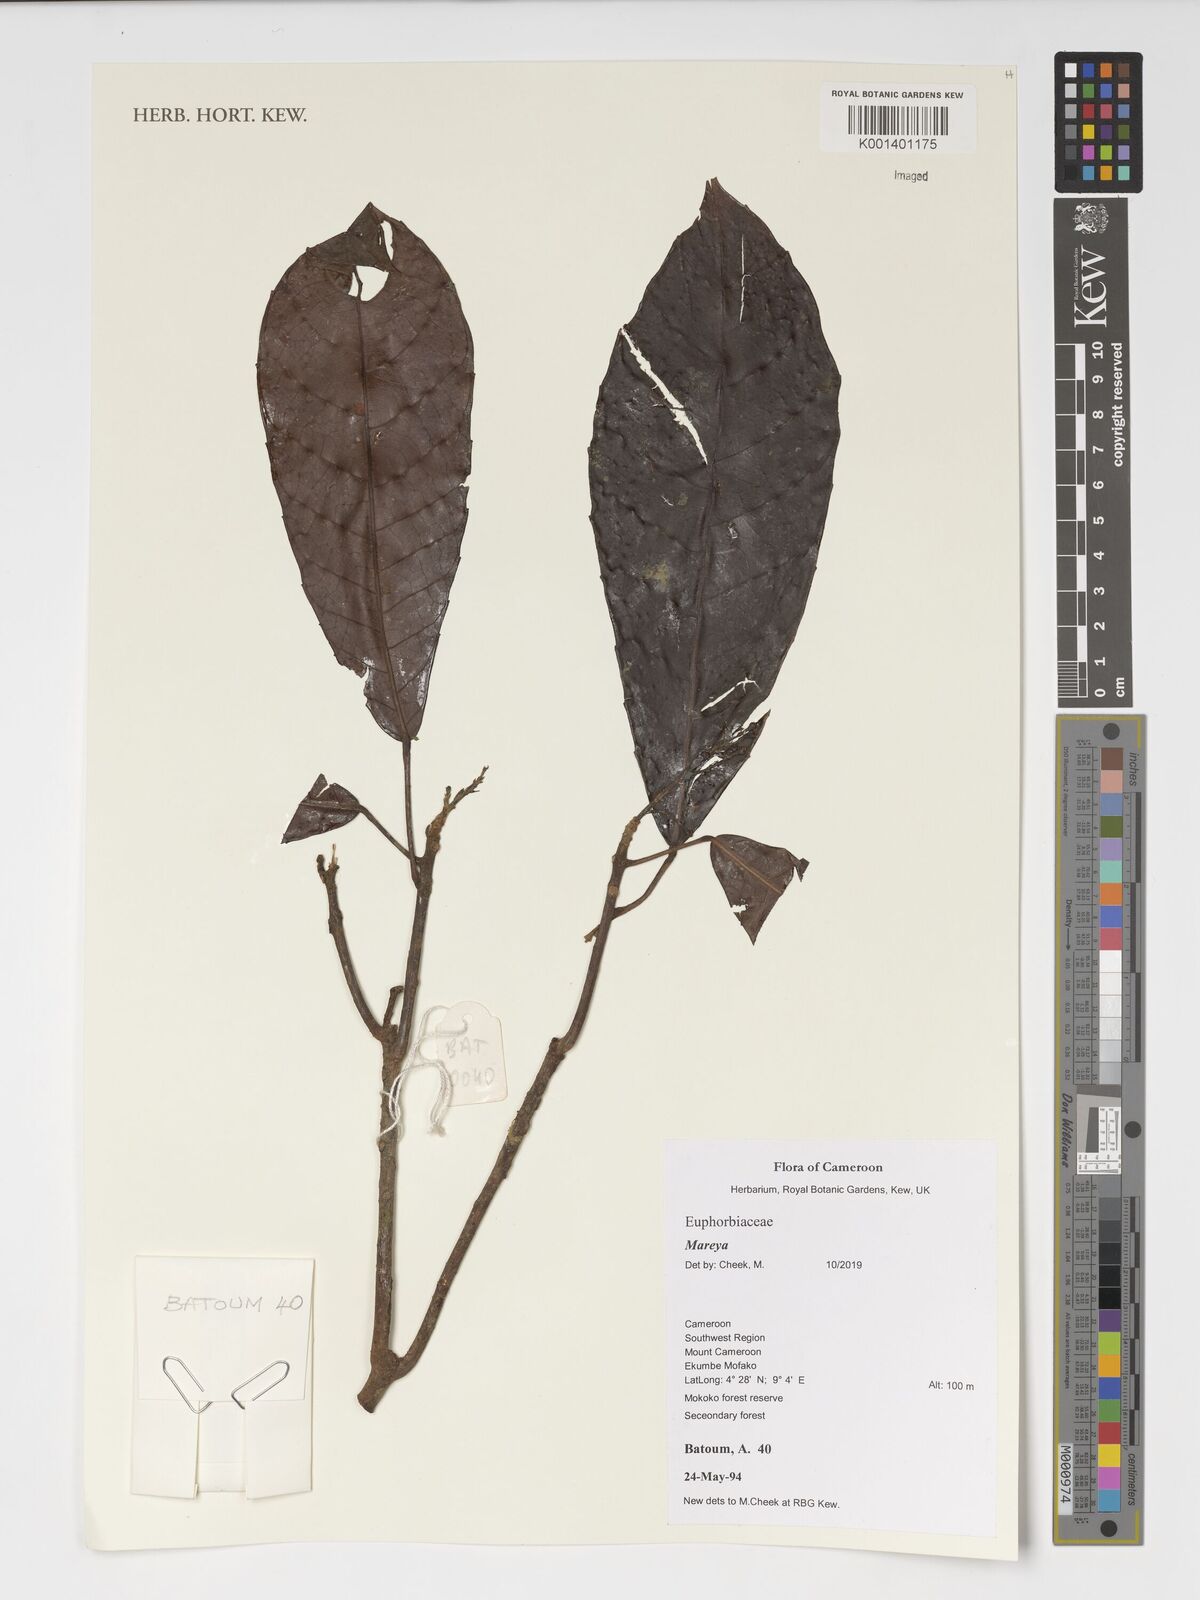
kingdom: Plantae
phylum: Tracheophyta
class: Magnoliopsida
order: Malpighiales
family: Euphorbiaceae
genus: Mareya
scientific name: Mareya
